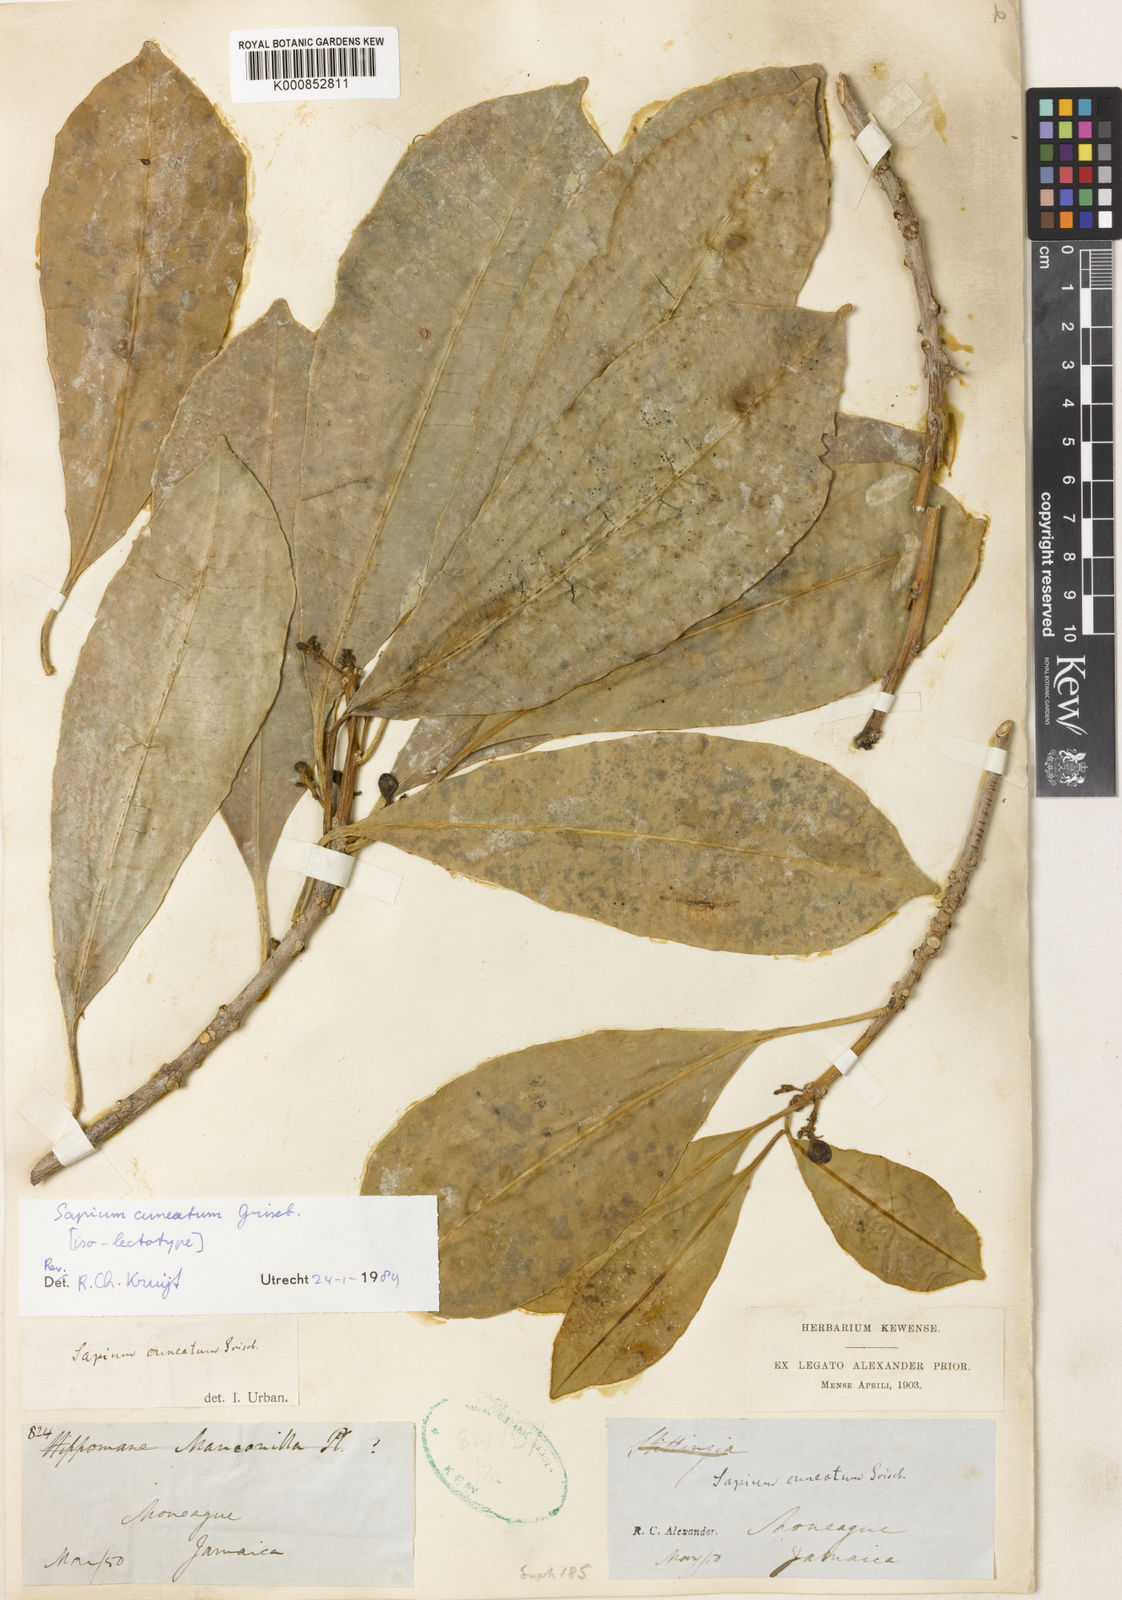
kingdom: Plantae
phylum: Tracheophyta
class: Magnoliopsida
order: Malpighiales
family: Euphorbiaceae
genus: Sapium
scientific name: Sapium cuneatum
